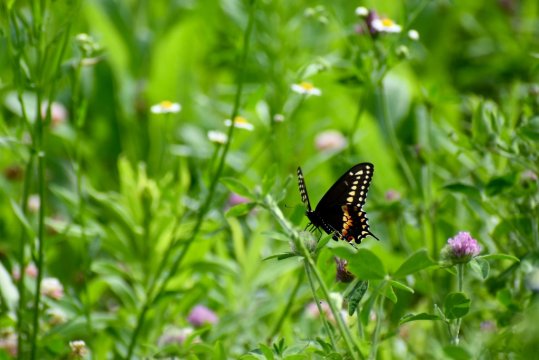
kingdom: Animalia
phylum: Arthropoda
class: Insecta
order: Lepidoptera
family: Papilionidae
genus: Papilio
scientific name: Papilio polyxenes
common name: Black Swallowtail
